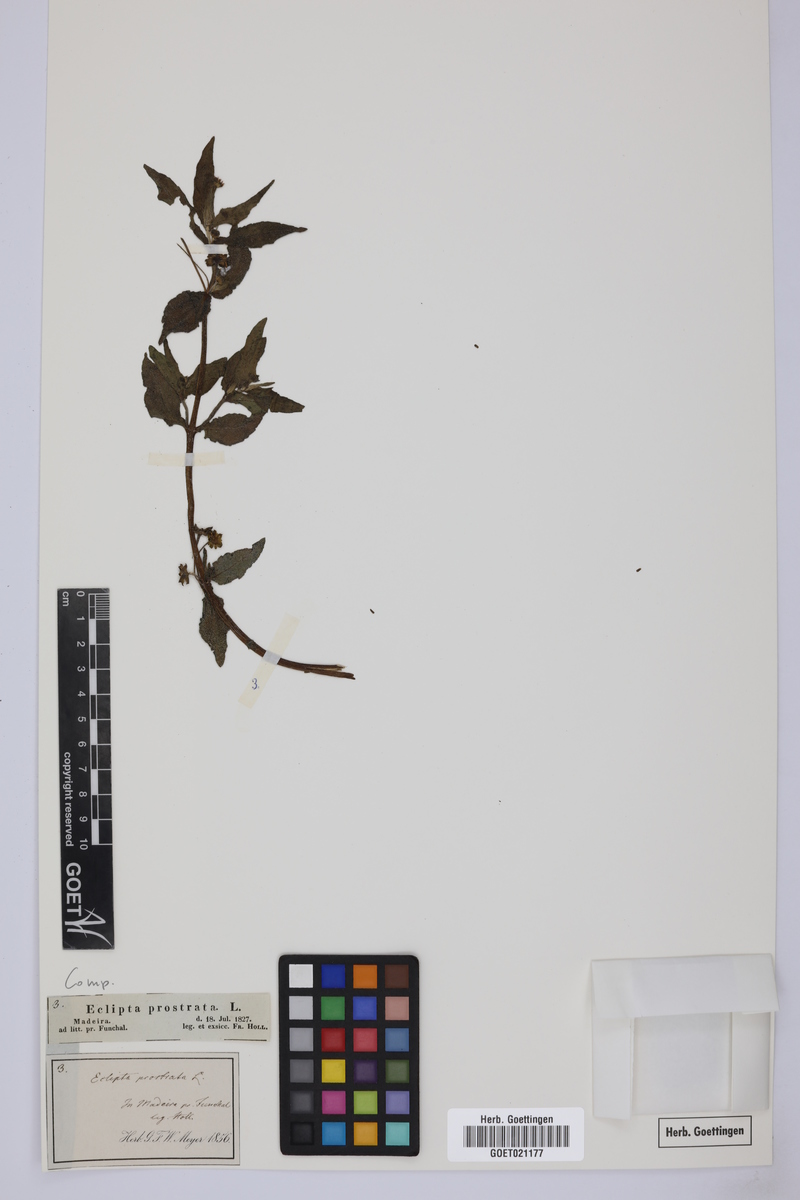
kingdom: Plantae
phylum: Tracheophyta
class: Magnoliopsida
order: Asterales
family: Asteraceae
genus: Eclipta
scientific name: Eclipta prostrata
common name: False daisy
